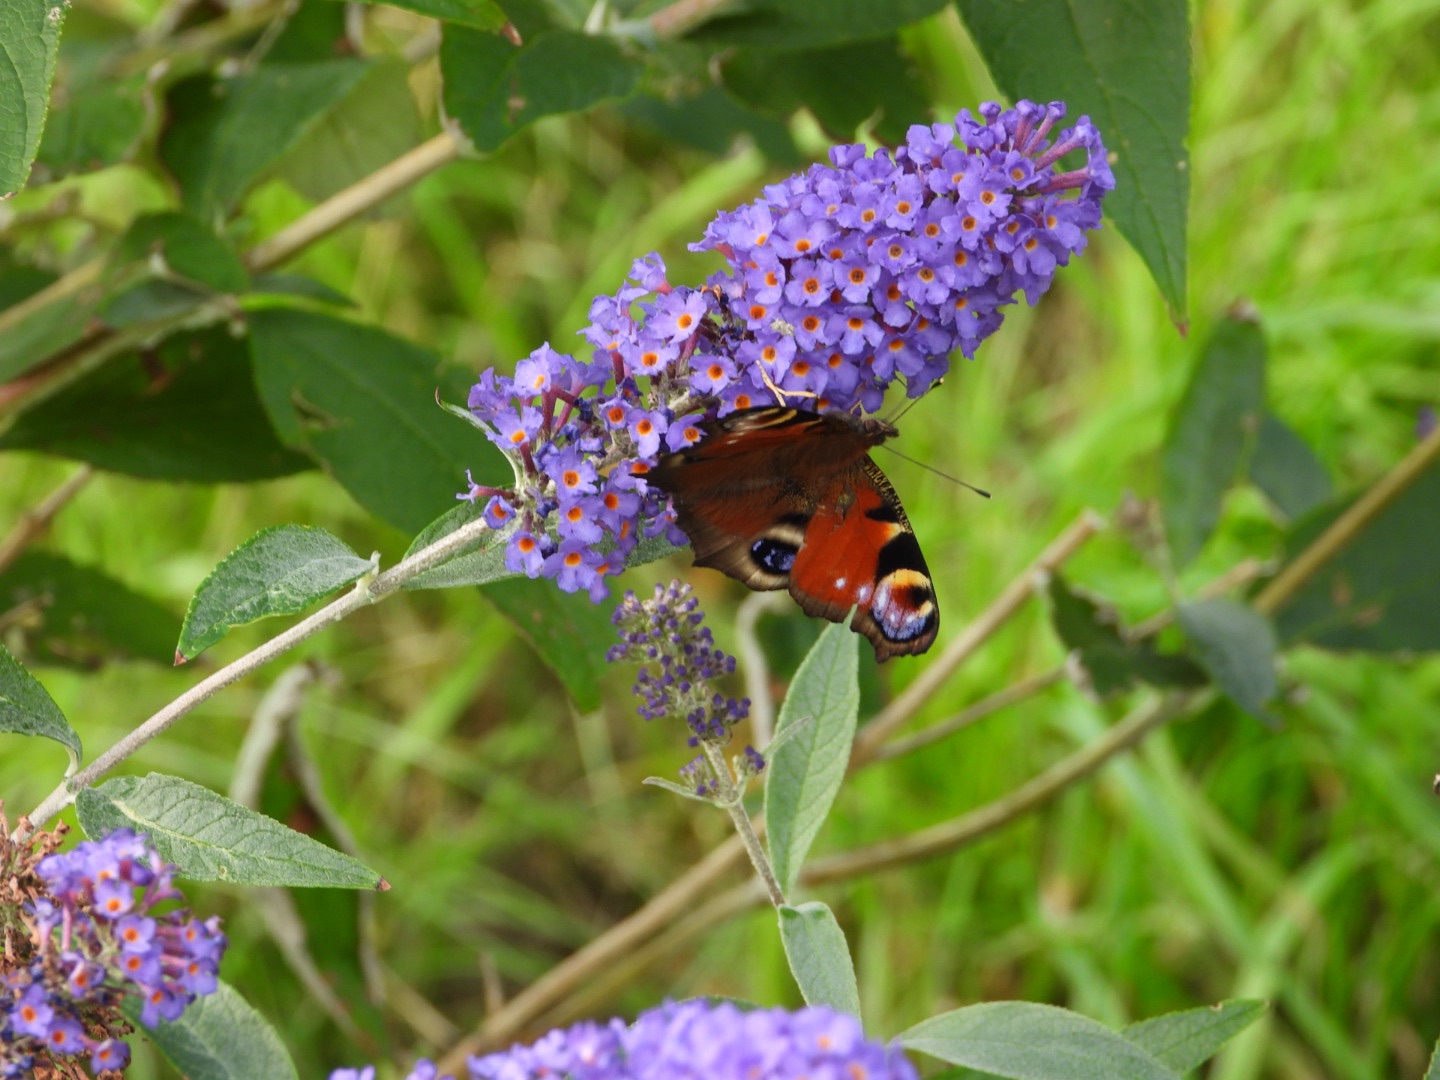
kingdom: Animalia
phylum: Arthropoda
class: Insecta
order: Lepidoptera
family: Nymphalidae
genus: Aglais
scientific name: Aglais io
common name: Dagpåfugleøje
